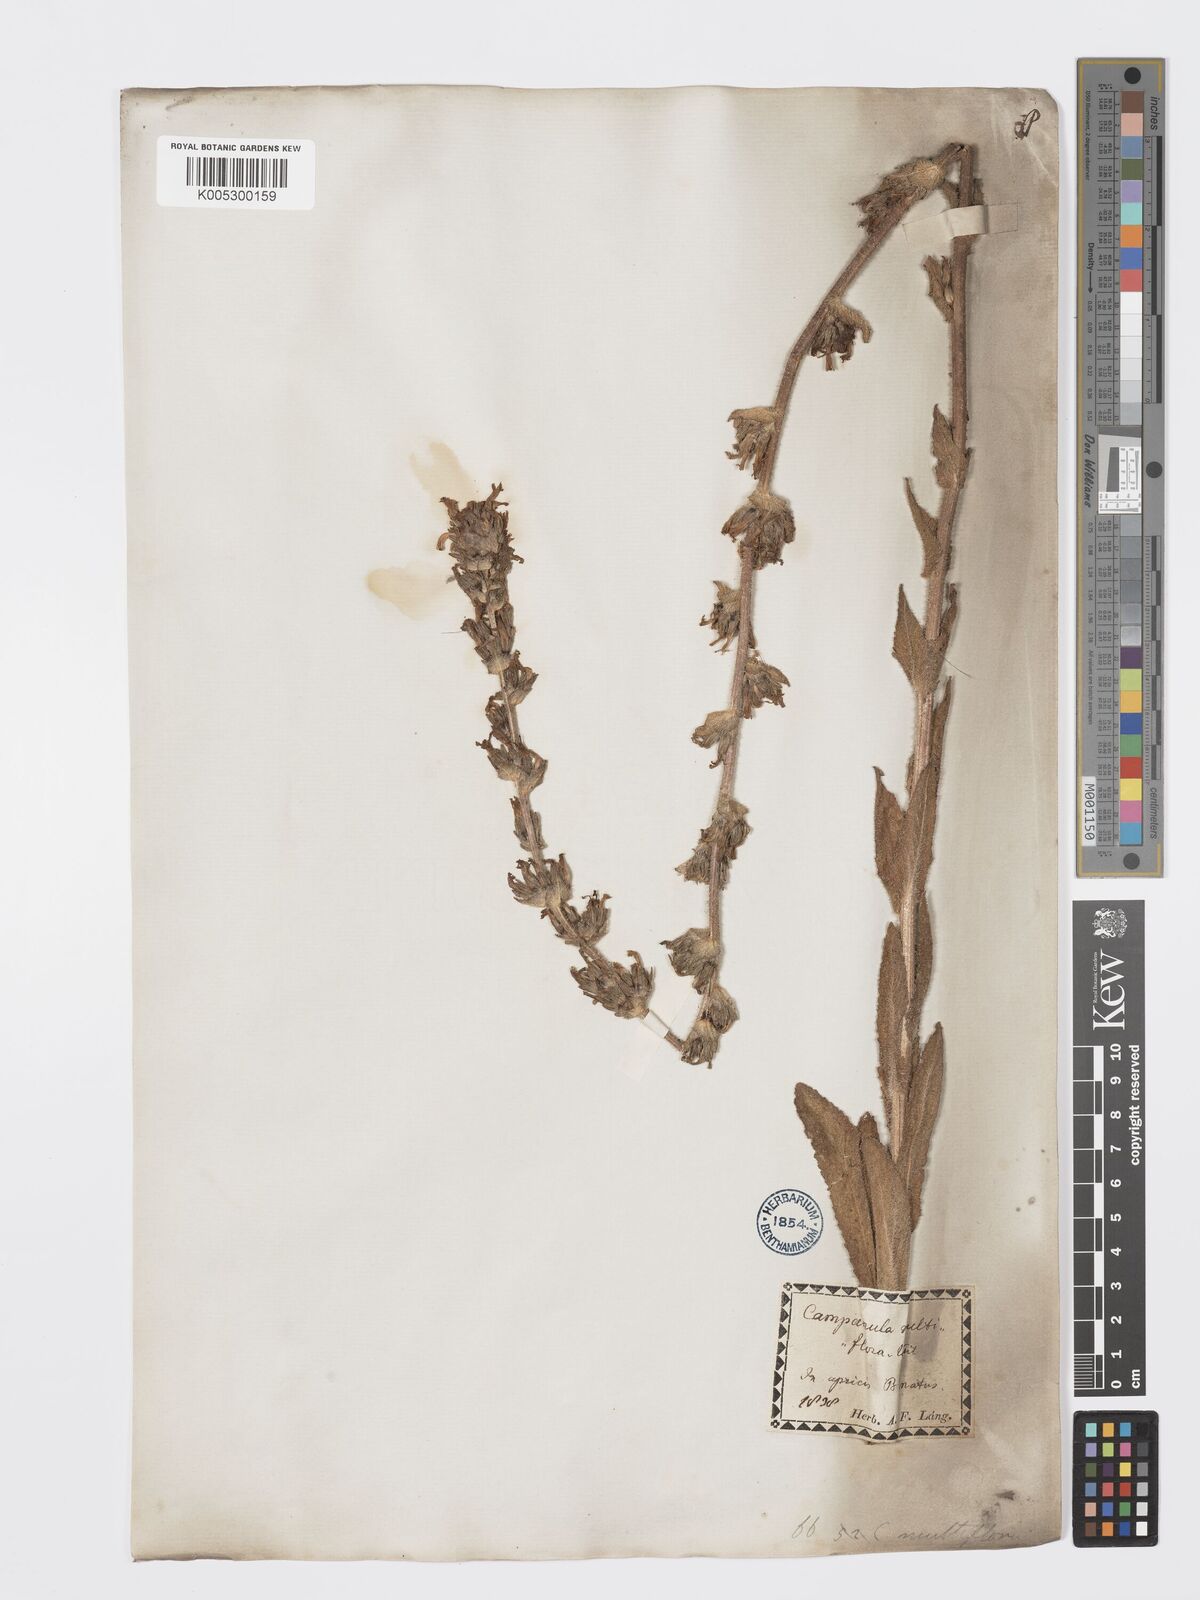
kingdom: Plantae
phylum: Tracheophyta
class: Magnoliopsida
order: Asterales
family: Campanulaceae
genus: Campanula
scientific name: Campanula
